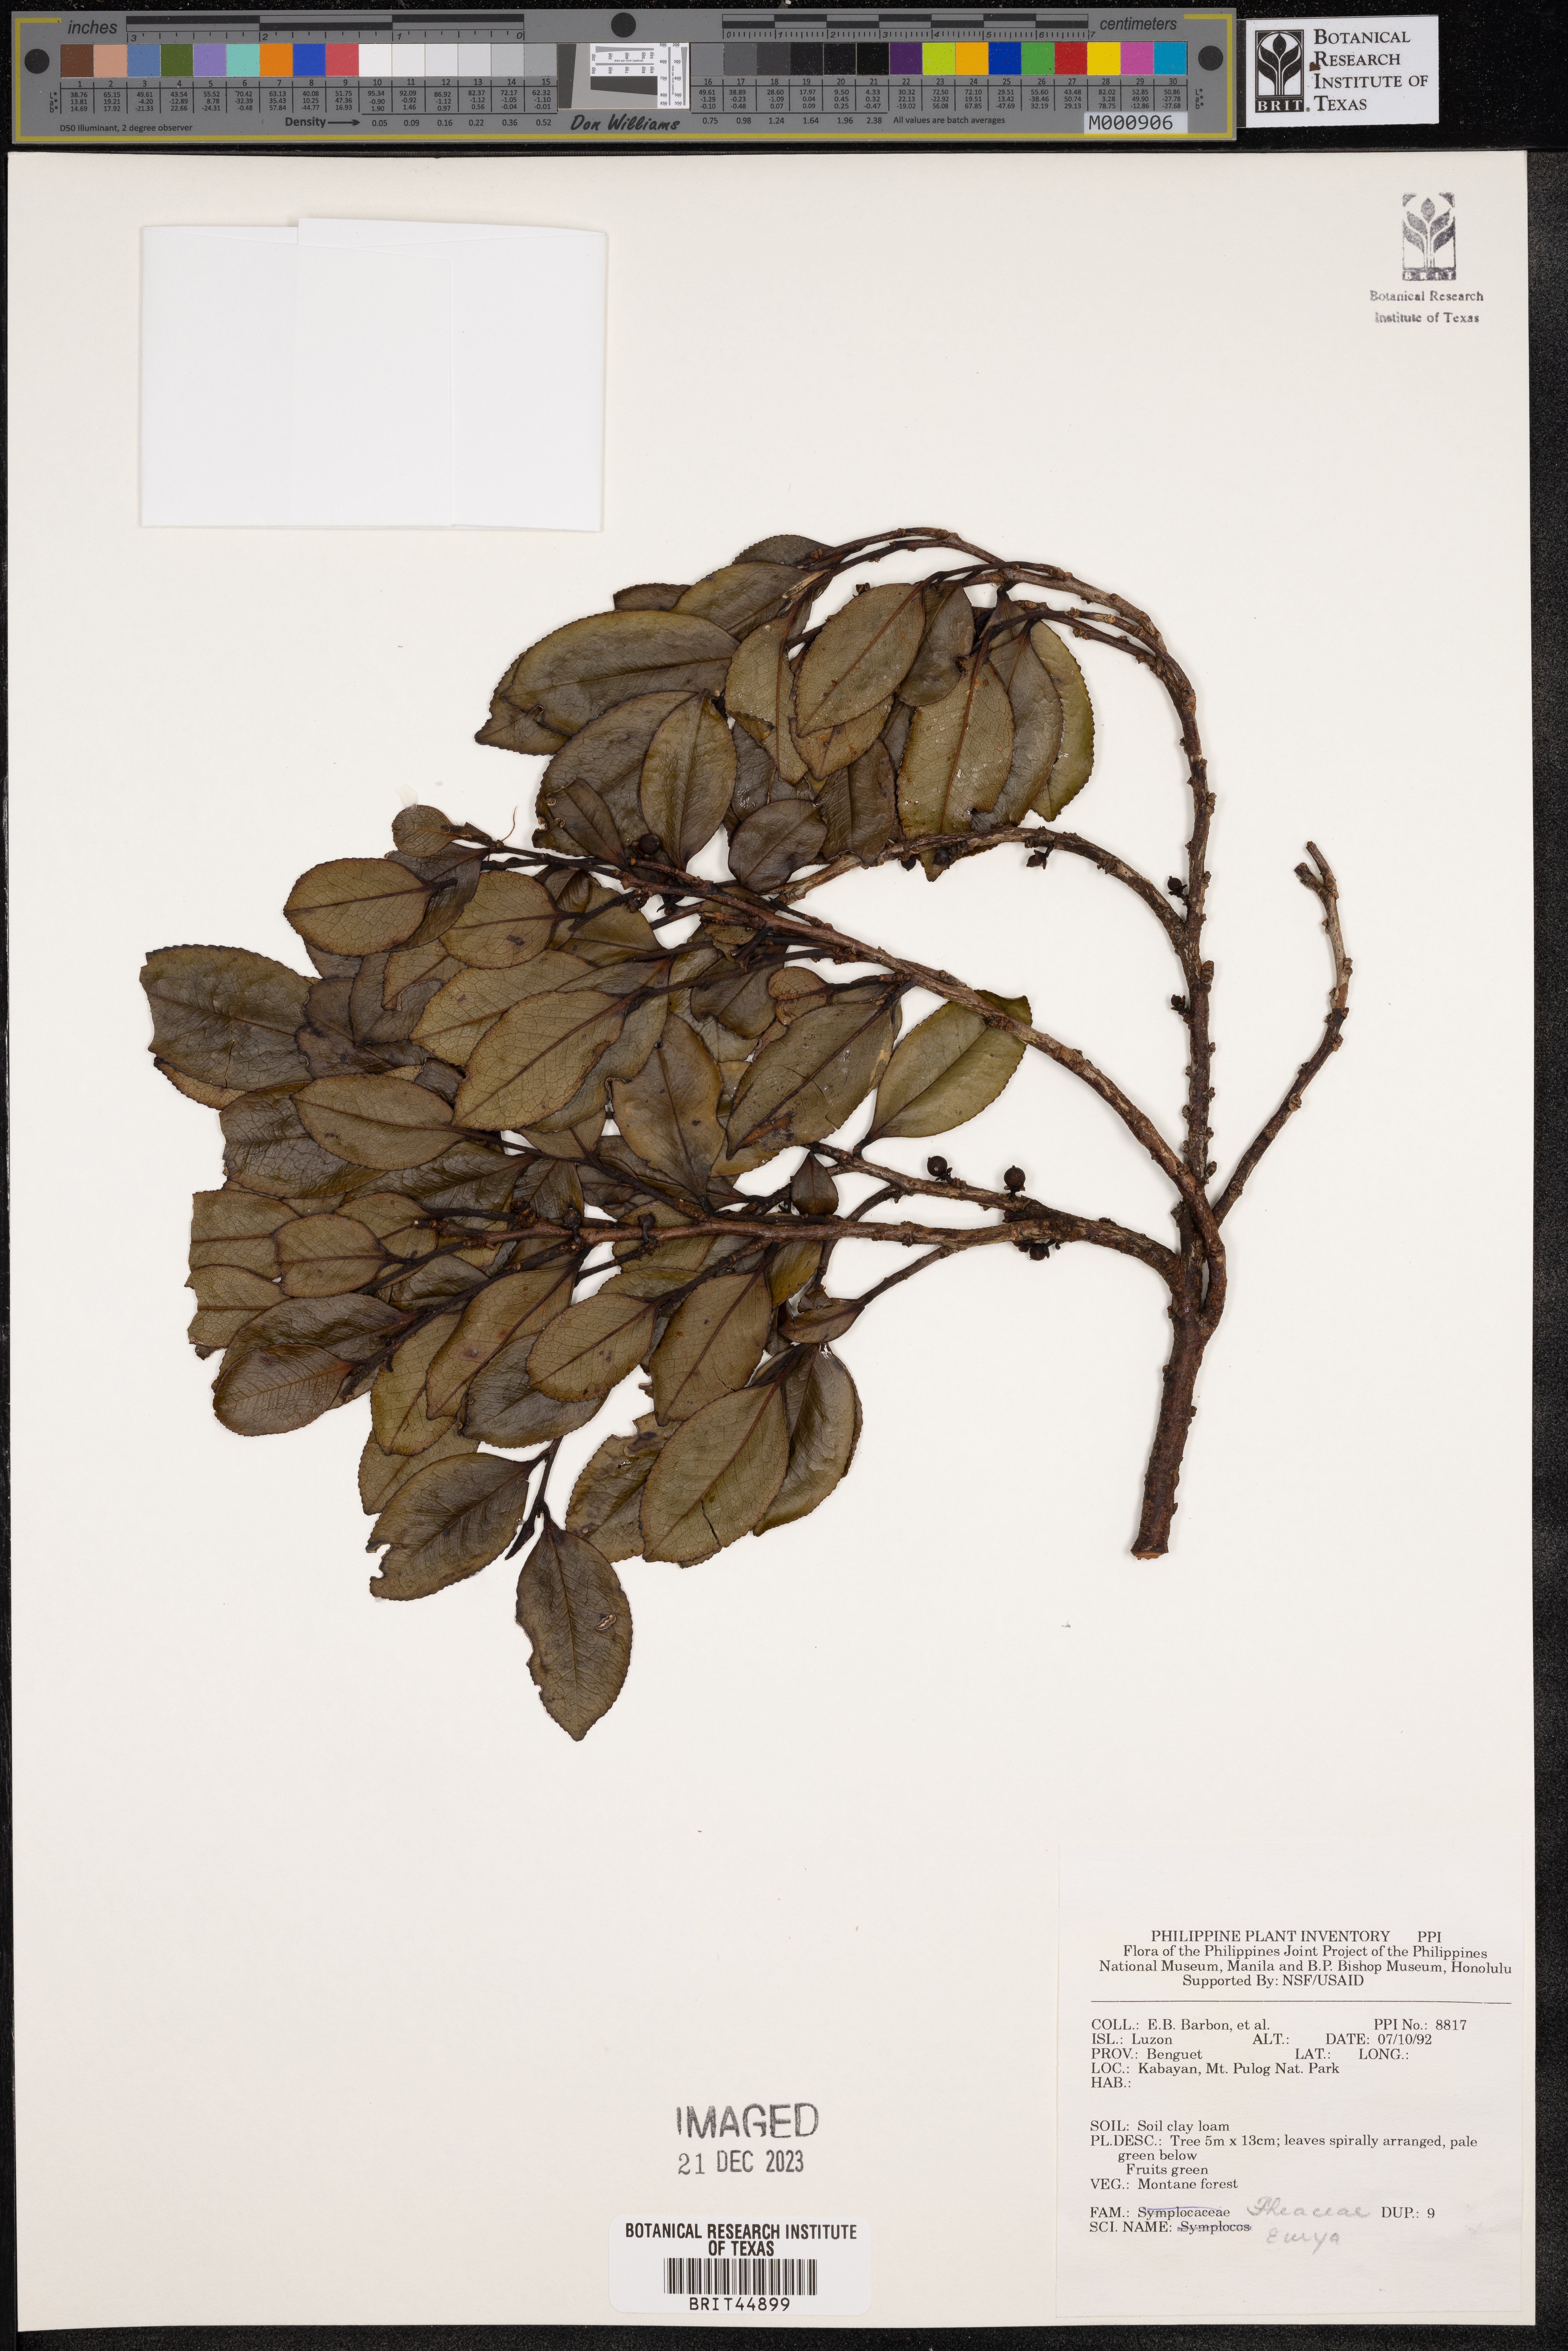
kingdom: Plantae
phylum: Tracheophyta
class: Magnoliopsida
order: Ericales
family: Pentaphylacaceae
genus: Eurya
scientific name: Eurya
